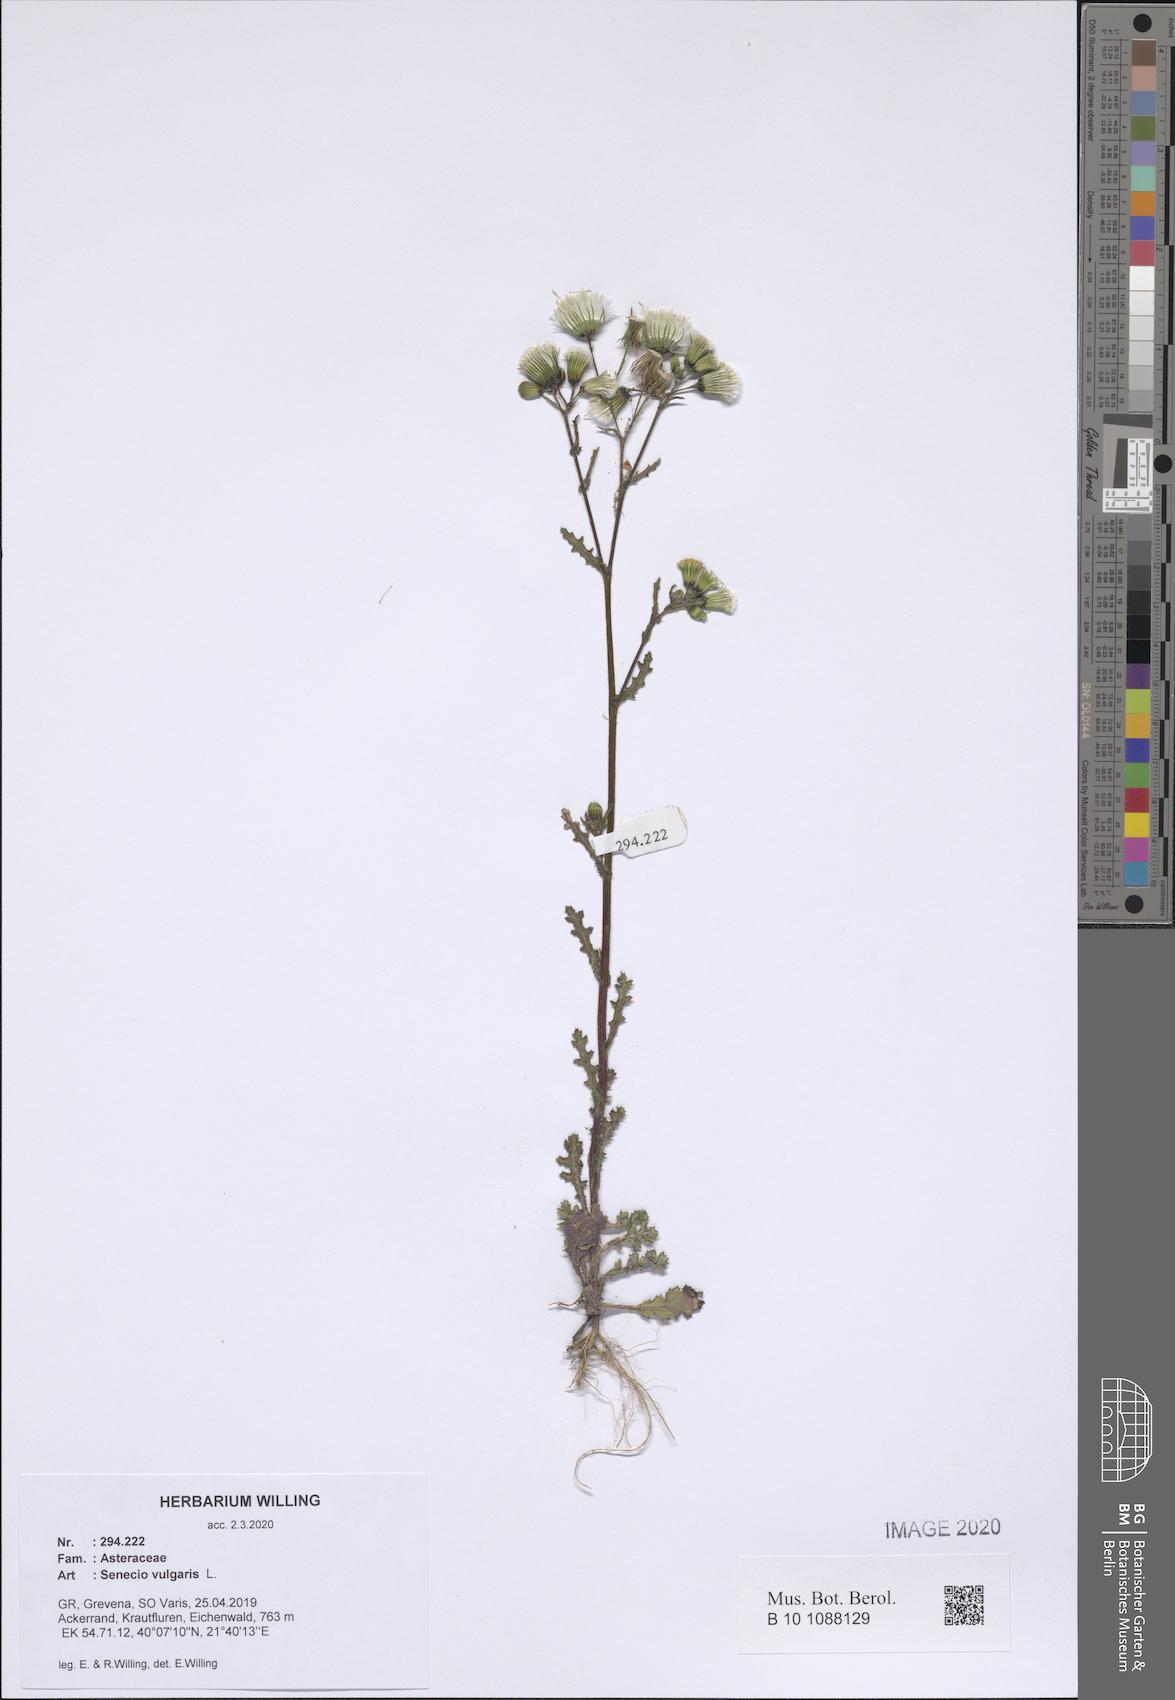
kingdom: Plantae
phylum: Tracheophyta
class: Magnoliopsida
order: Asterales
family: Asteraceae
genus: Senecio
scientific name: Senecio vulgaris
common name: Old-man-in-the-spring
